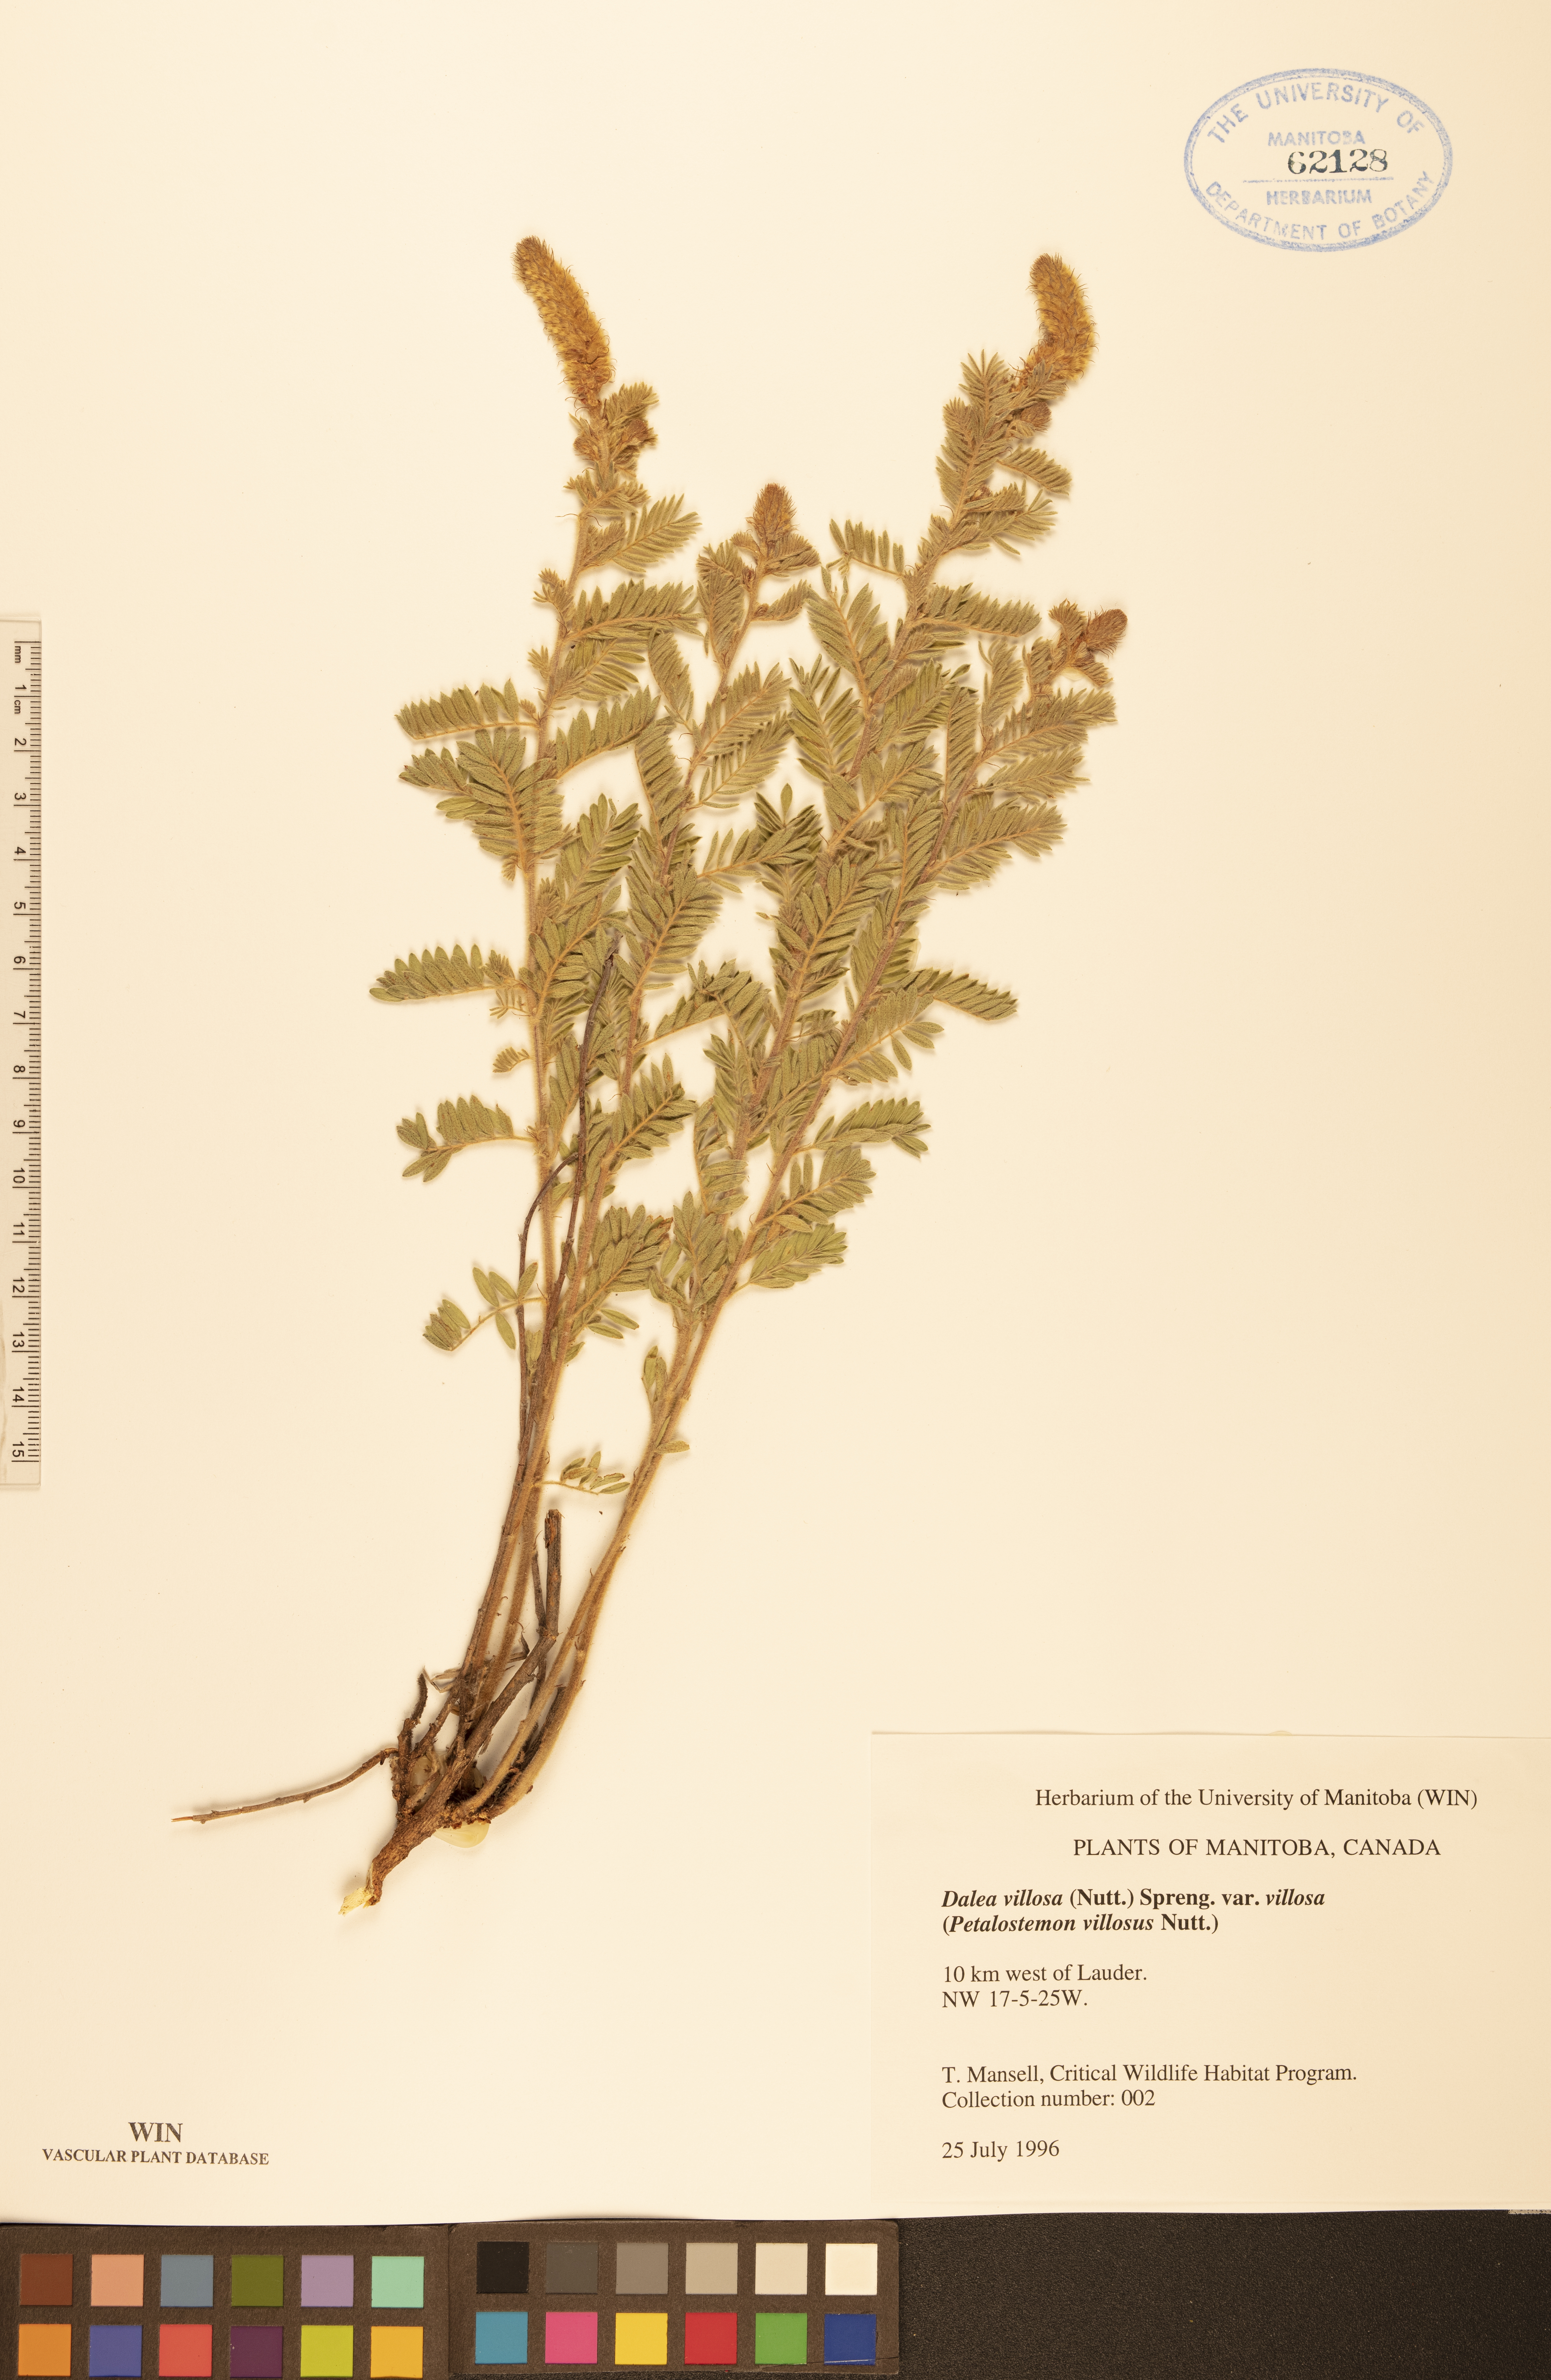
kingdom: Plantae
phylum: Tracheophyta
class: Magnoliopsida
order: Fabales
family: Fabaceae
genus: Dalea
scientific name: Dalea villosa
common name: Silky prairie-clover
